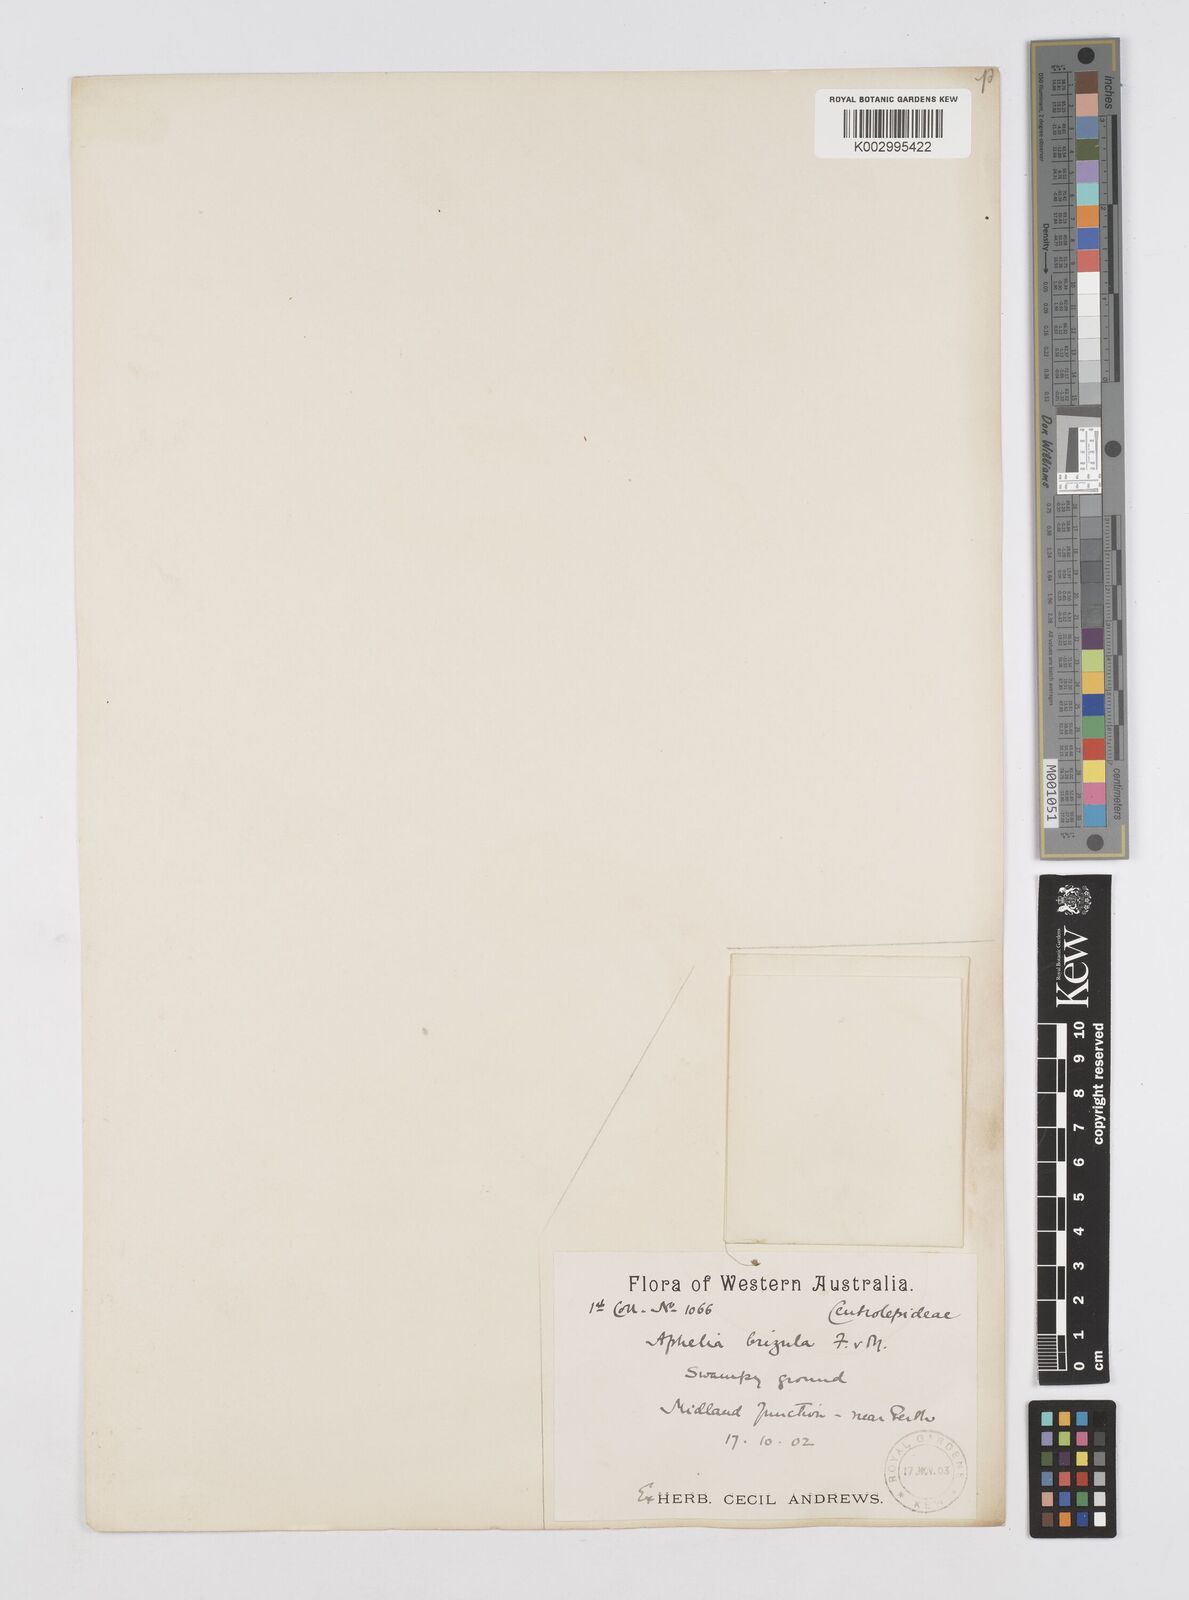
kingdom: Plantae
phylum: Tracheophyta
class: Liliopsida
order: Poales
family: Restionaceae
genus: Aphelia
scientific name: Aphelia drummondii
